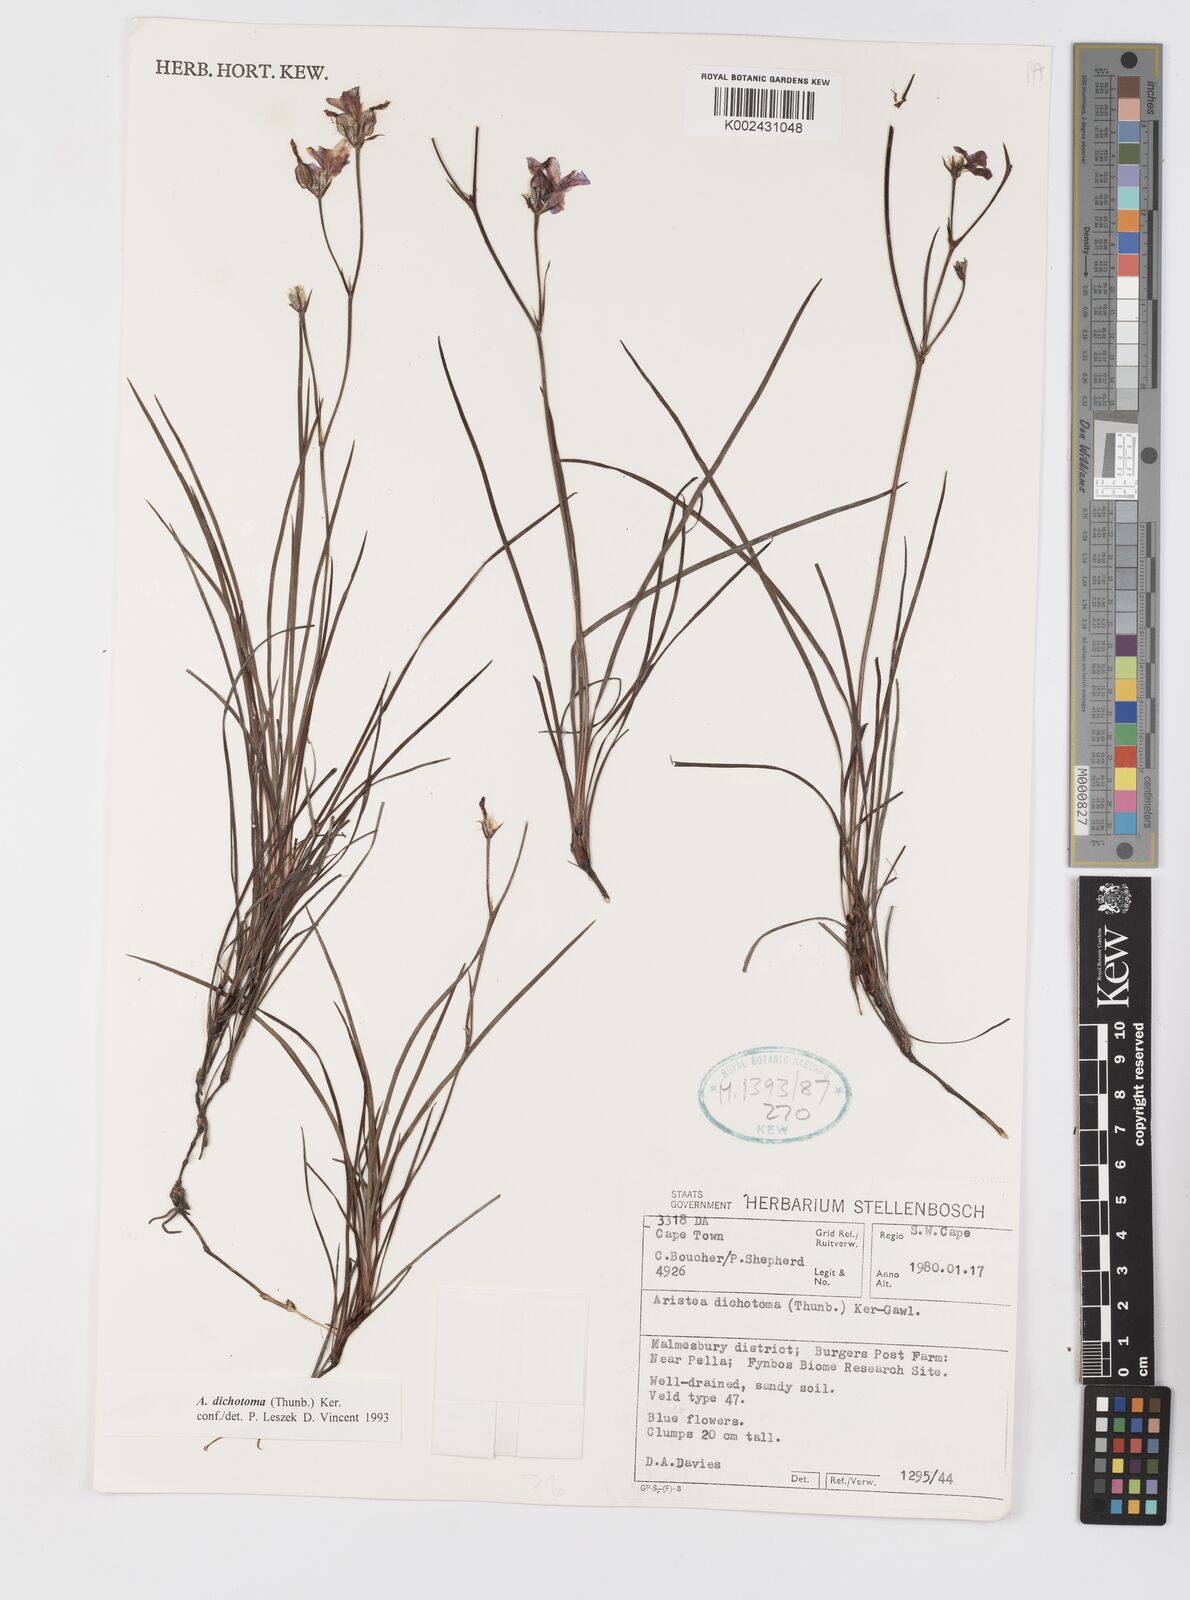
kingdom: Plantae
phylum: Tracheophyta
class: Liliopsida
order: Asparagales
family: Iridaceae
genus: Aristea
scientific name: Aristea dichotoma
